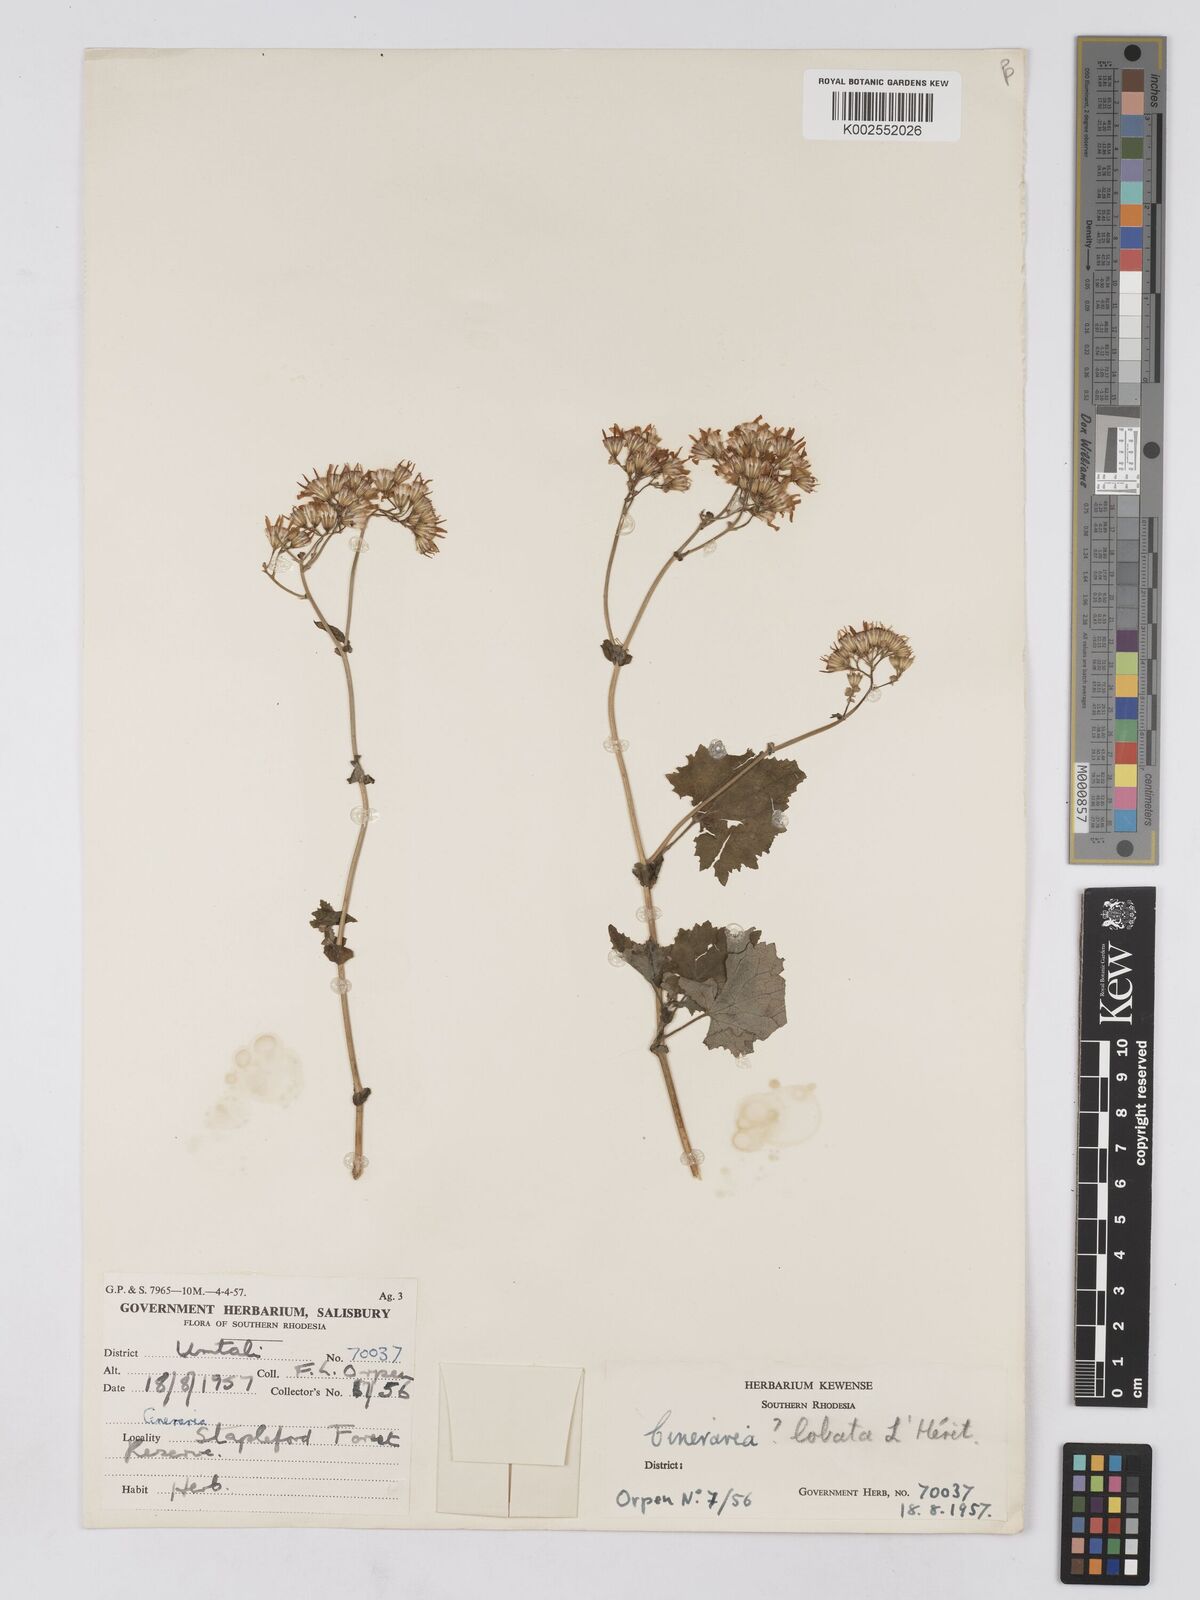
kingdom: Plantae
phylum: Tracheophyta
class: Magnoliopsida
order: Asterales
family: Asteraceae
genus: Cineraria
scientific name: Cineraria deltoidea
